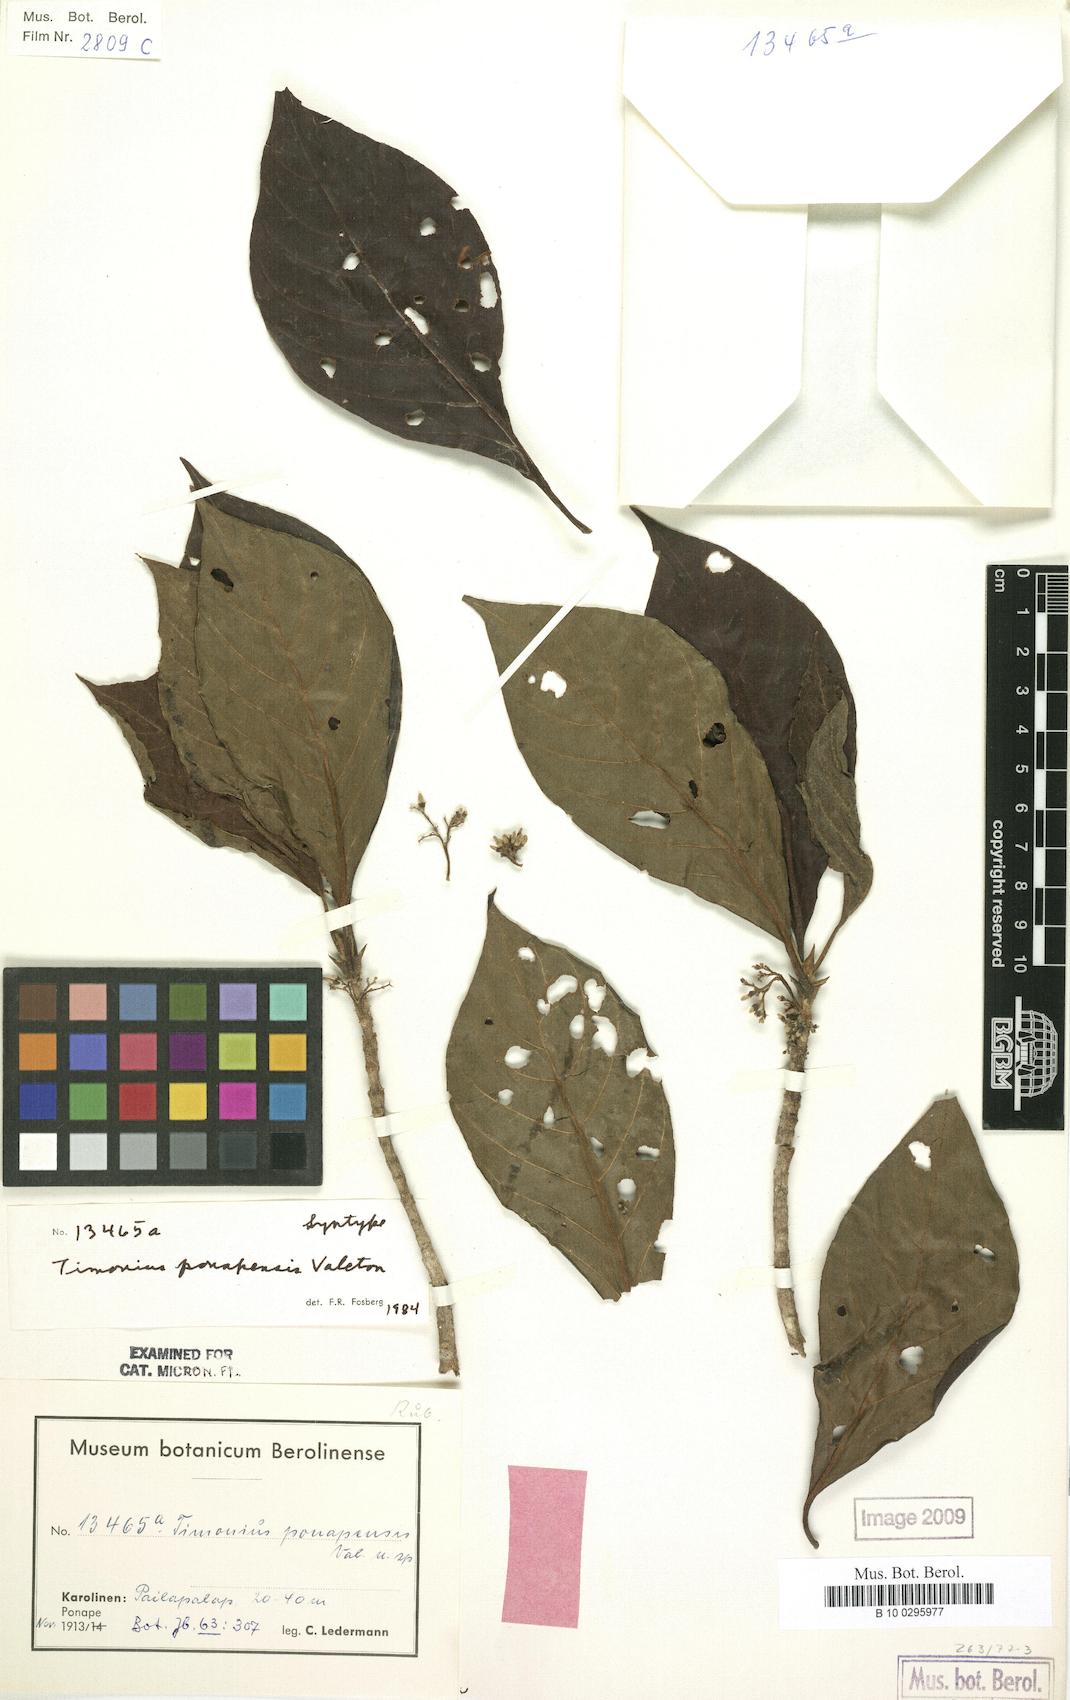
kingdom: Plantae
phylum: Tracheophyta
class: Magnoliopsida
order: Gentianales
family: Rubiaceae
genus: Timonius
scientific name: Timonius ponapensis
